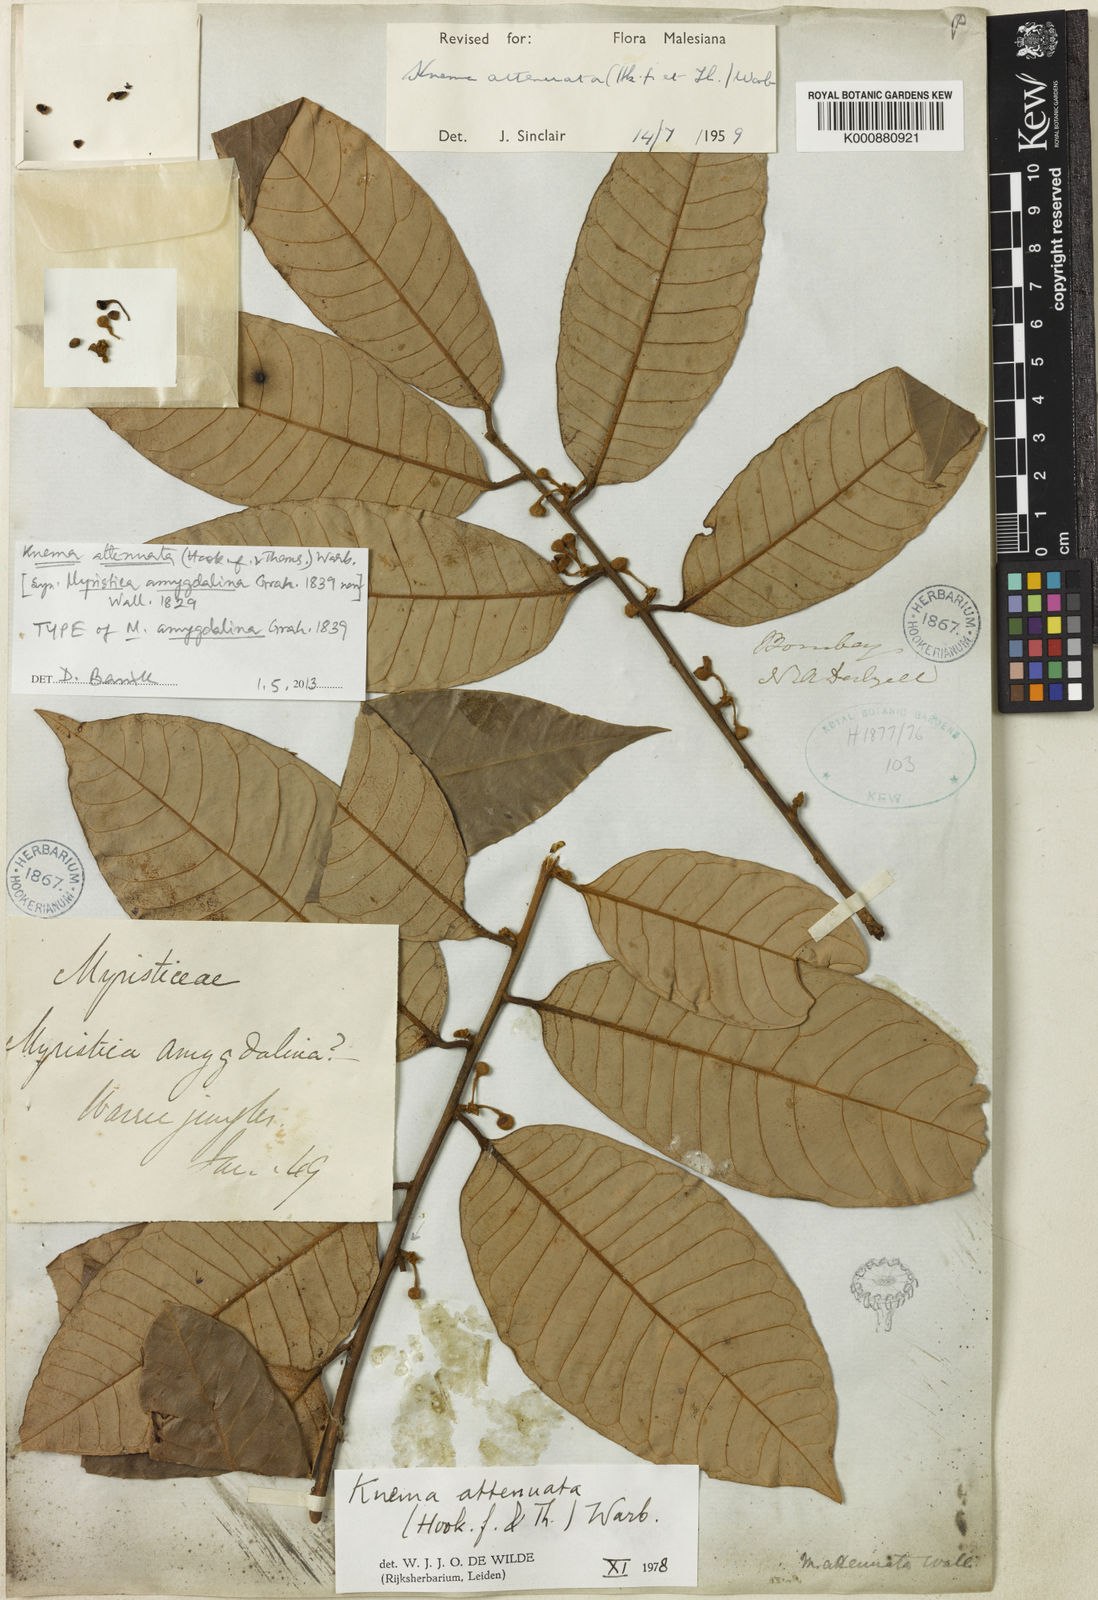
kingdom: Plantae
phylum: Tracheophyta
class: Magnoliopsida
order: Magnoliales
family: Myristicaceae
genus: Knema
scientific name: Knema attenuata
